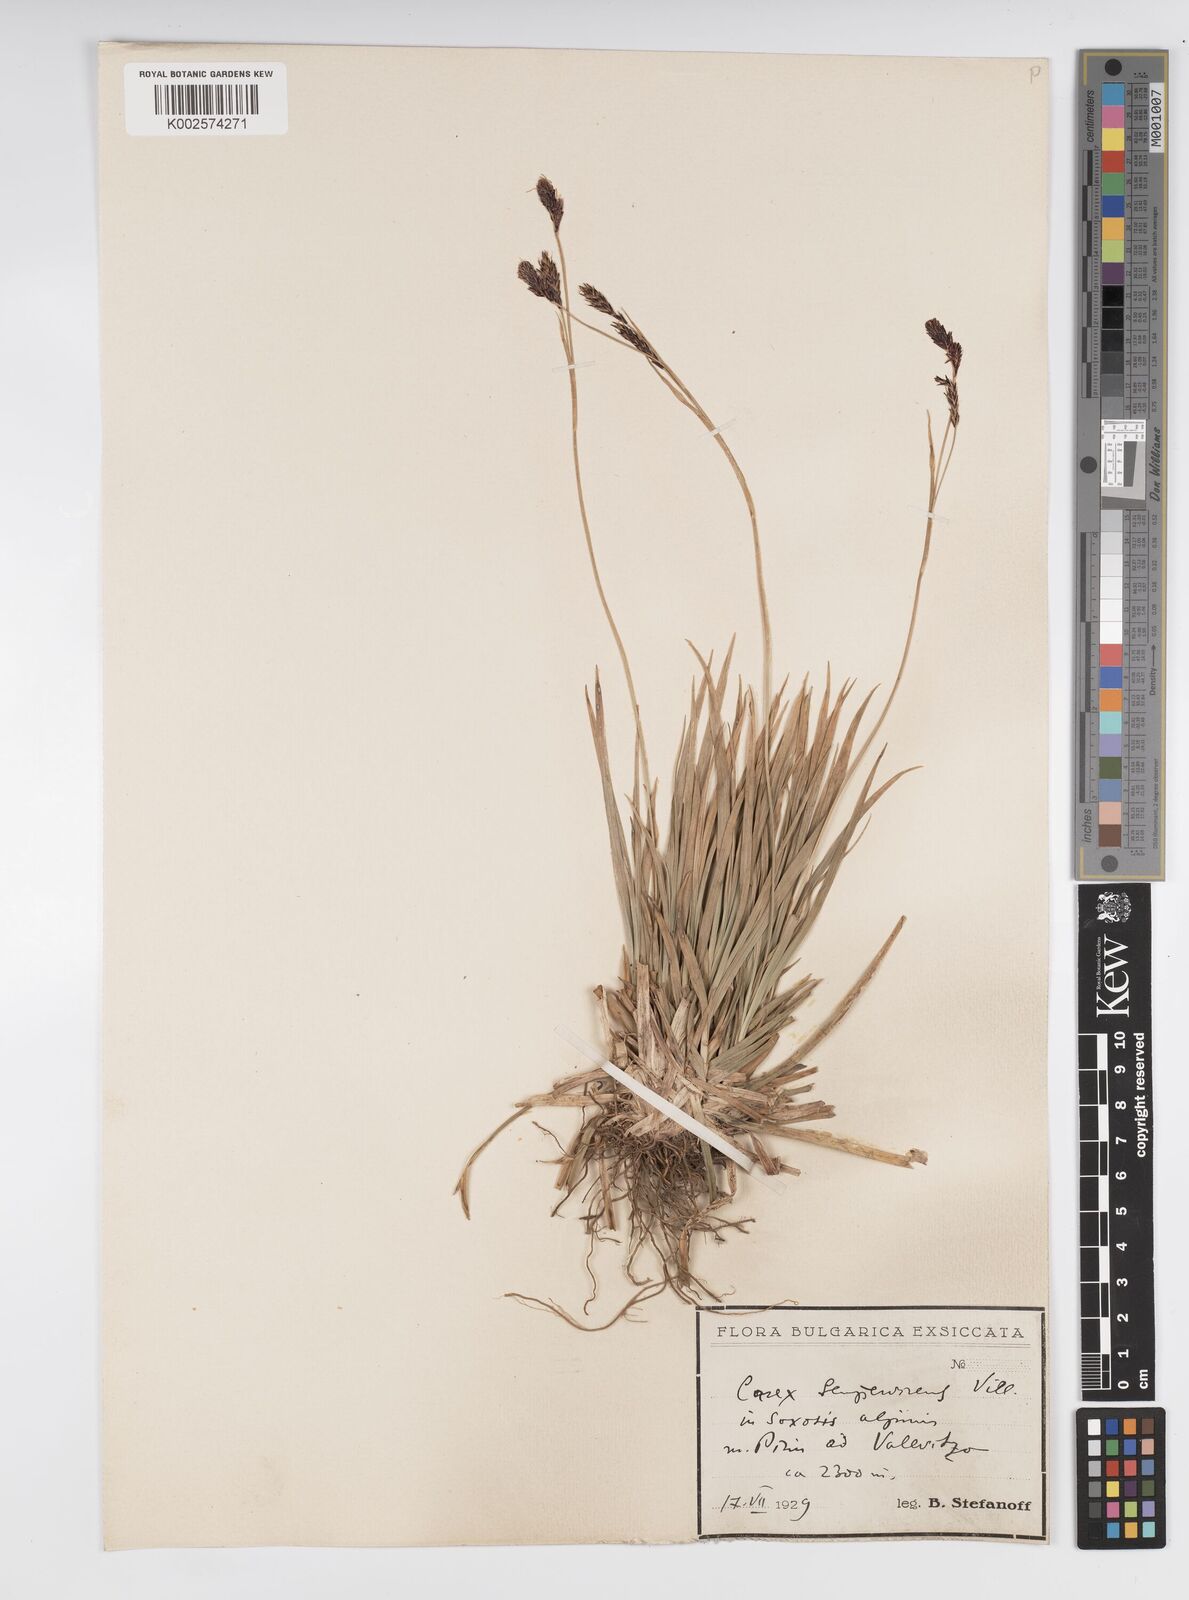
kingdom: Plantae
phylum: Tracheophyta
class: Liliopsida
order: Poales
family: Cyperaceae
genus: Carex
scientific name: Carex frigida
